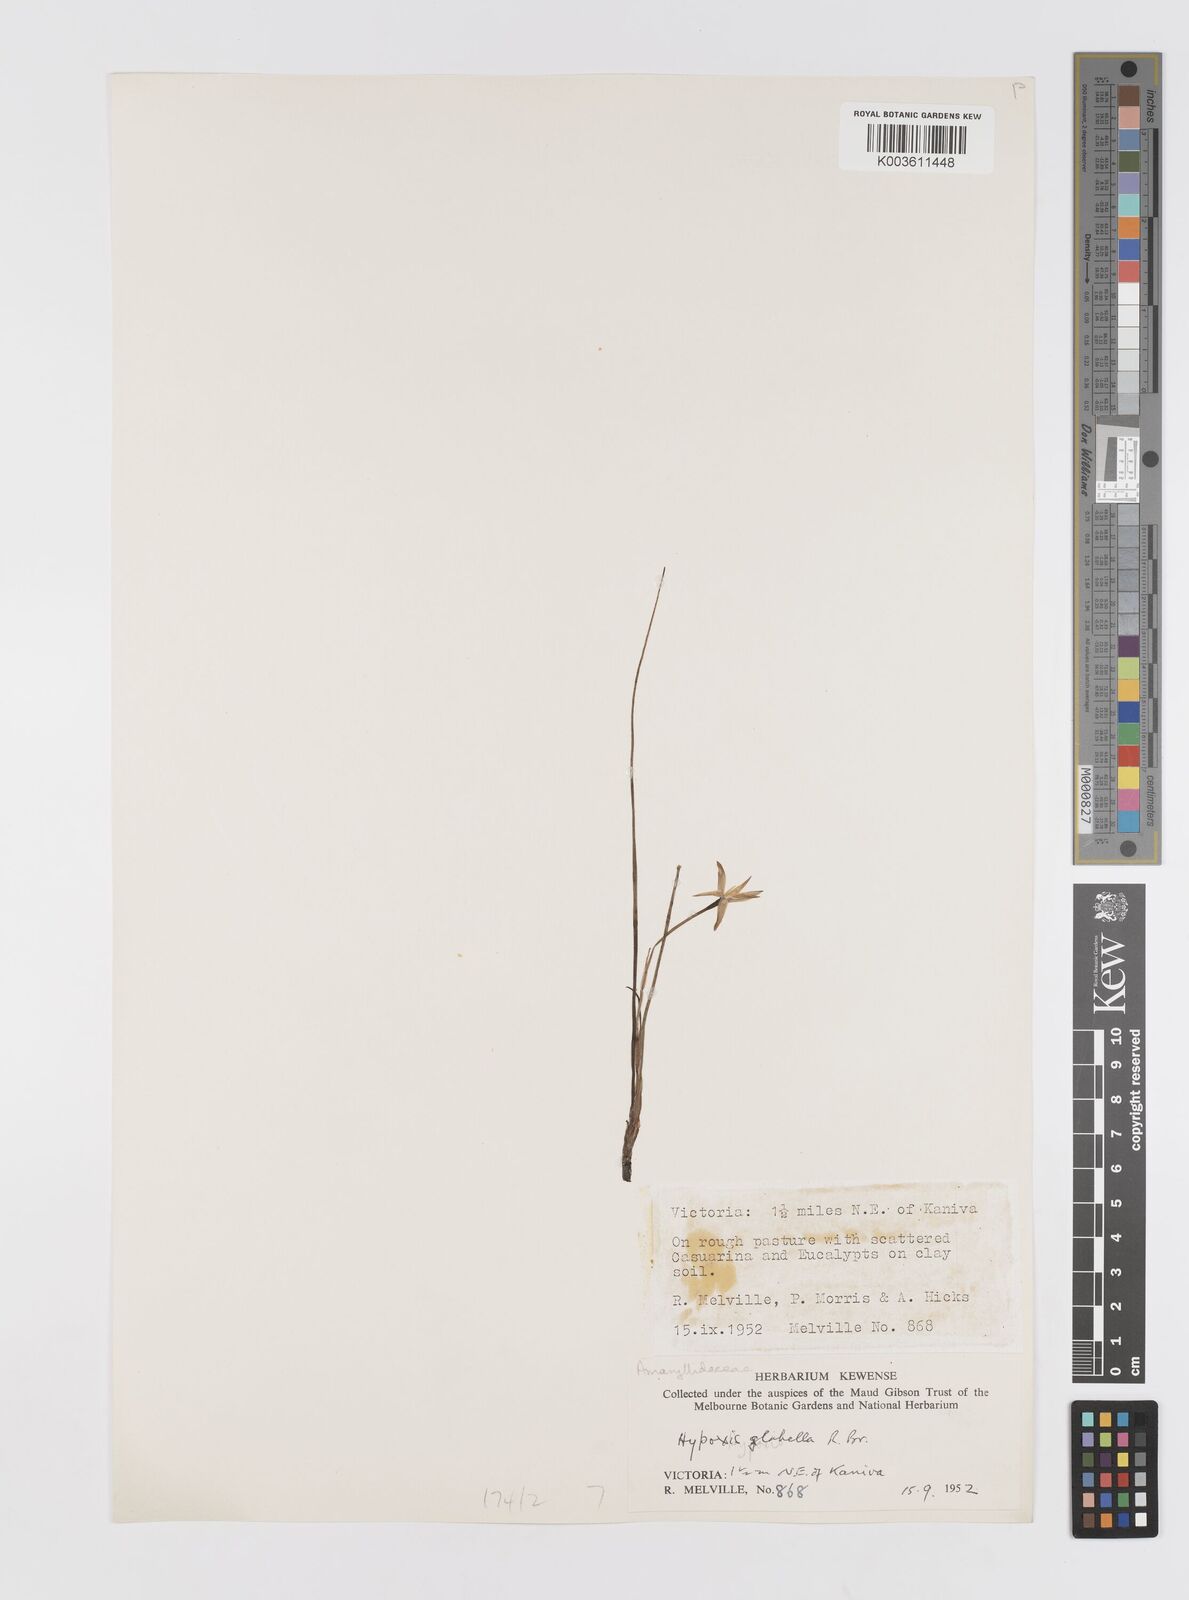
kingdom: Plantae
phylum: Tracheophyta
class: Liliopsida
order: Asparagales
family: Hypoxidaceae
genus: Pauridia
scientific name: Pauridia glabella
